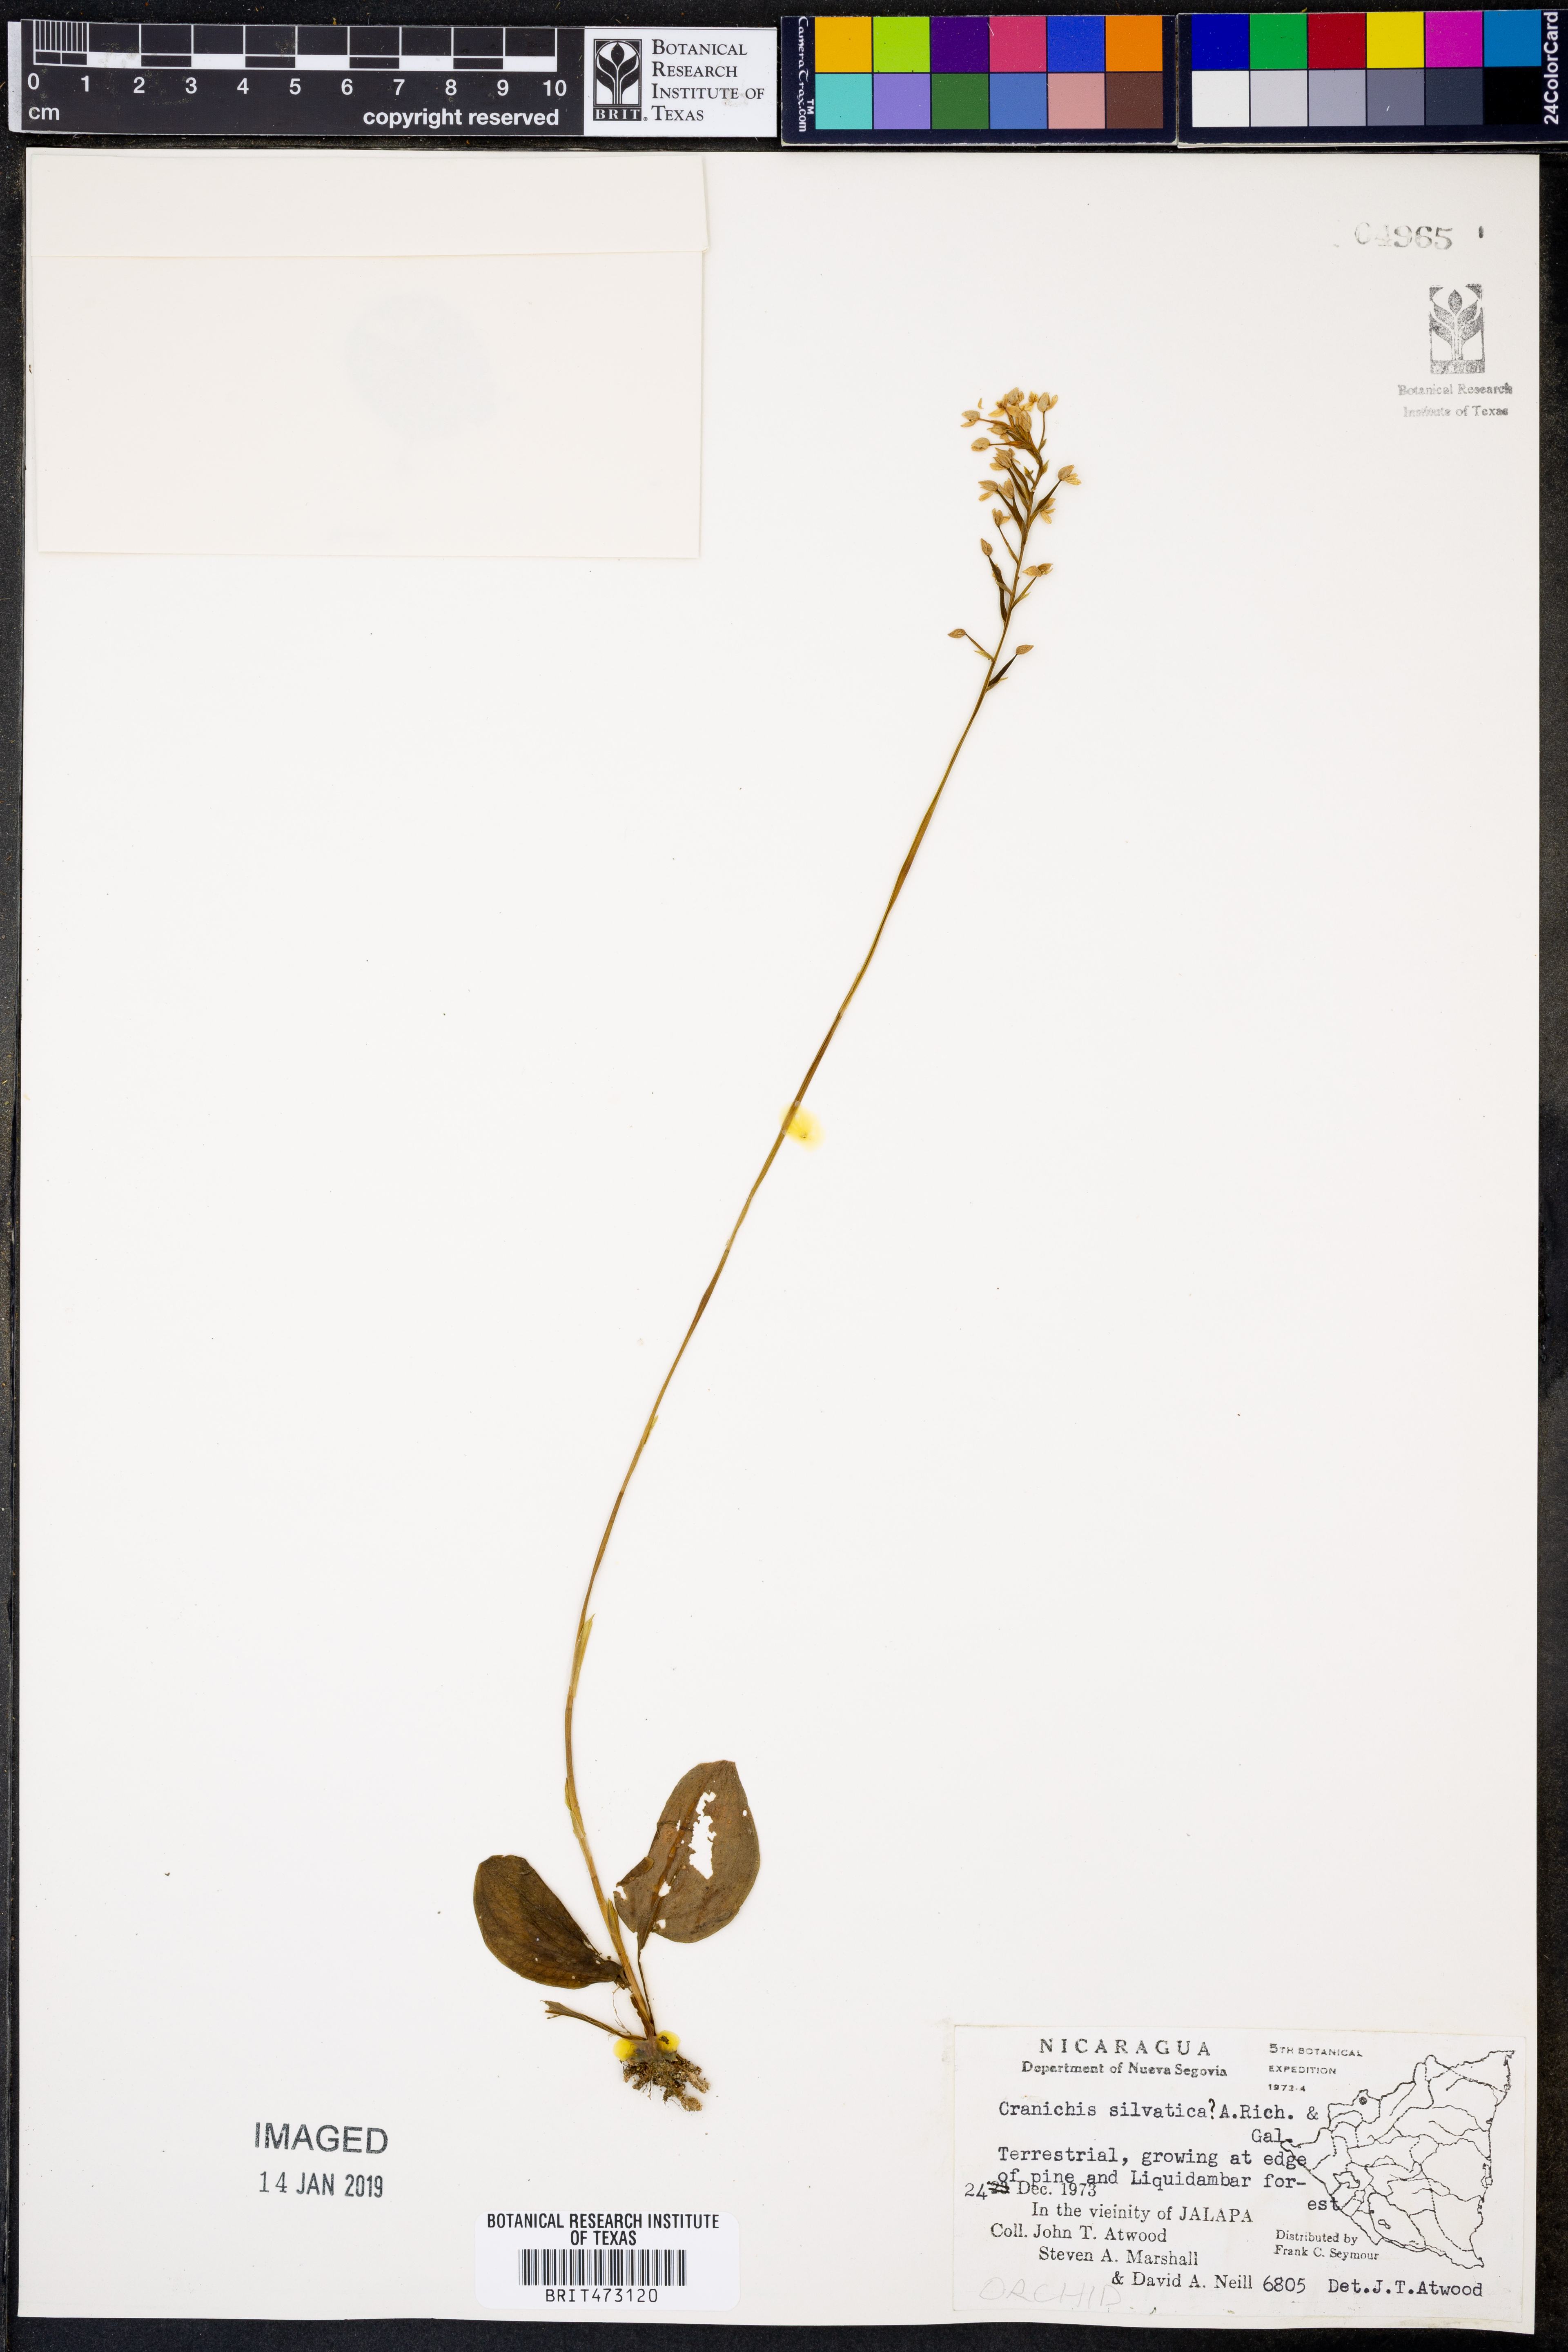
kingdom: Plantae
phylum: Tracheophyta
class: Liliopsida
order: Asparagales
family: Orchidaceae
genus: Cranichis
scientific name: Cranichis sylvatica
